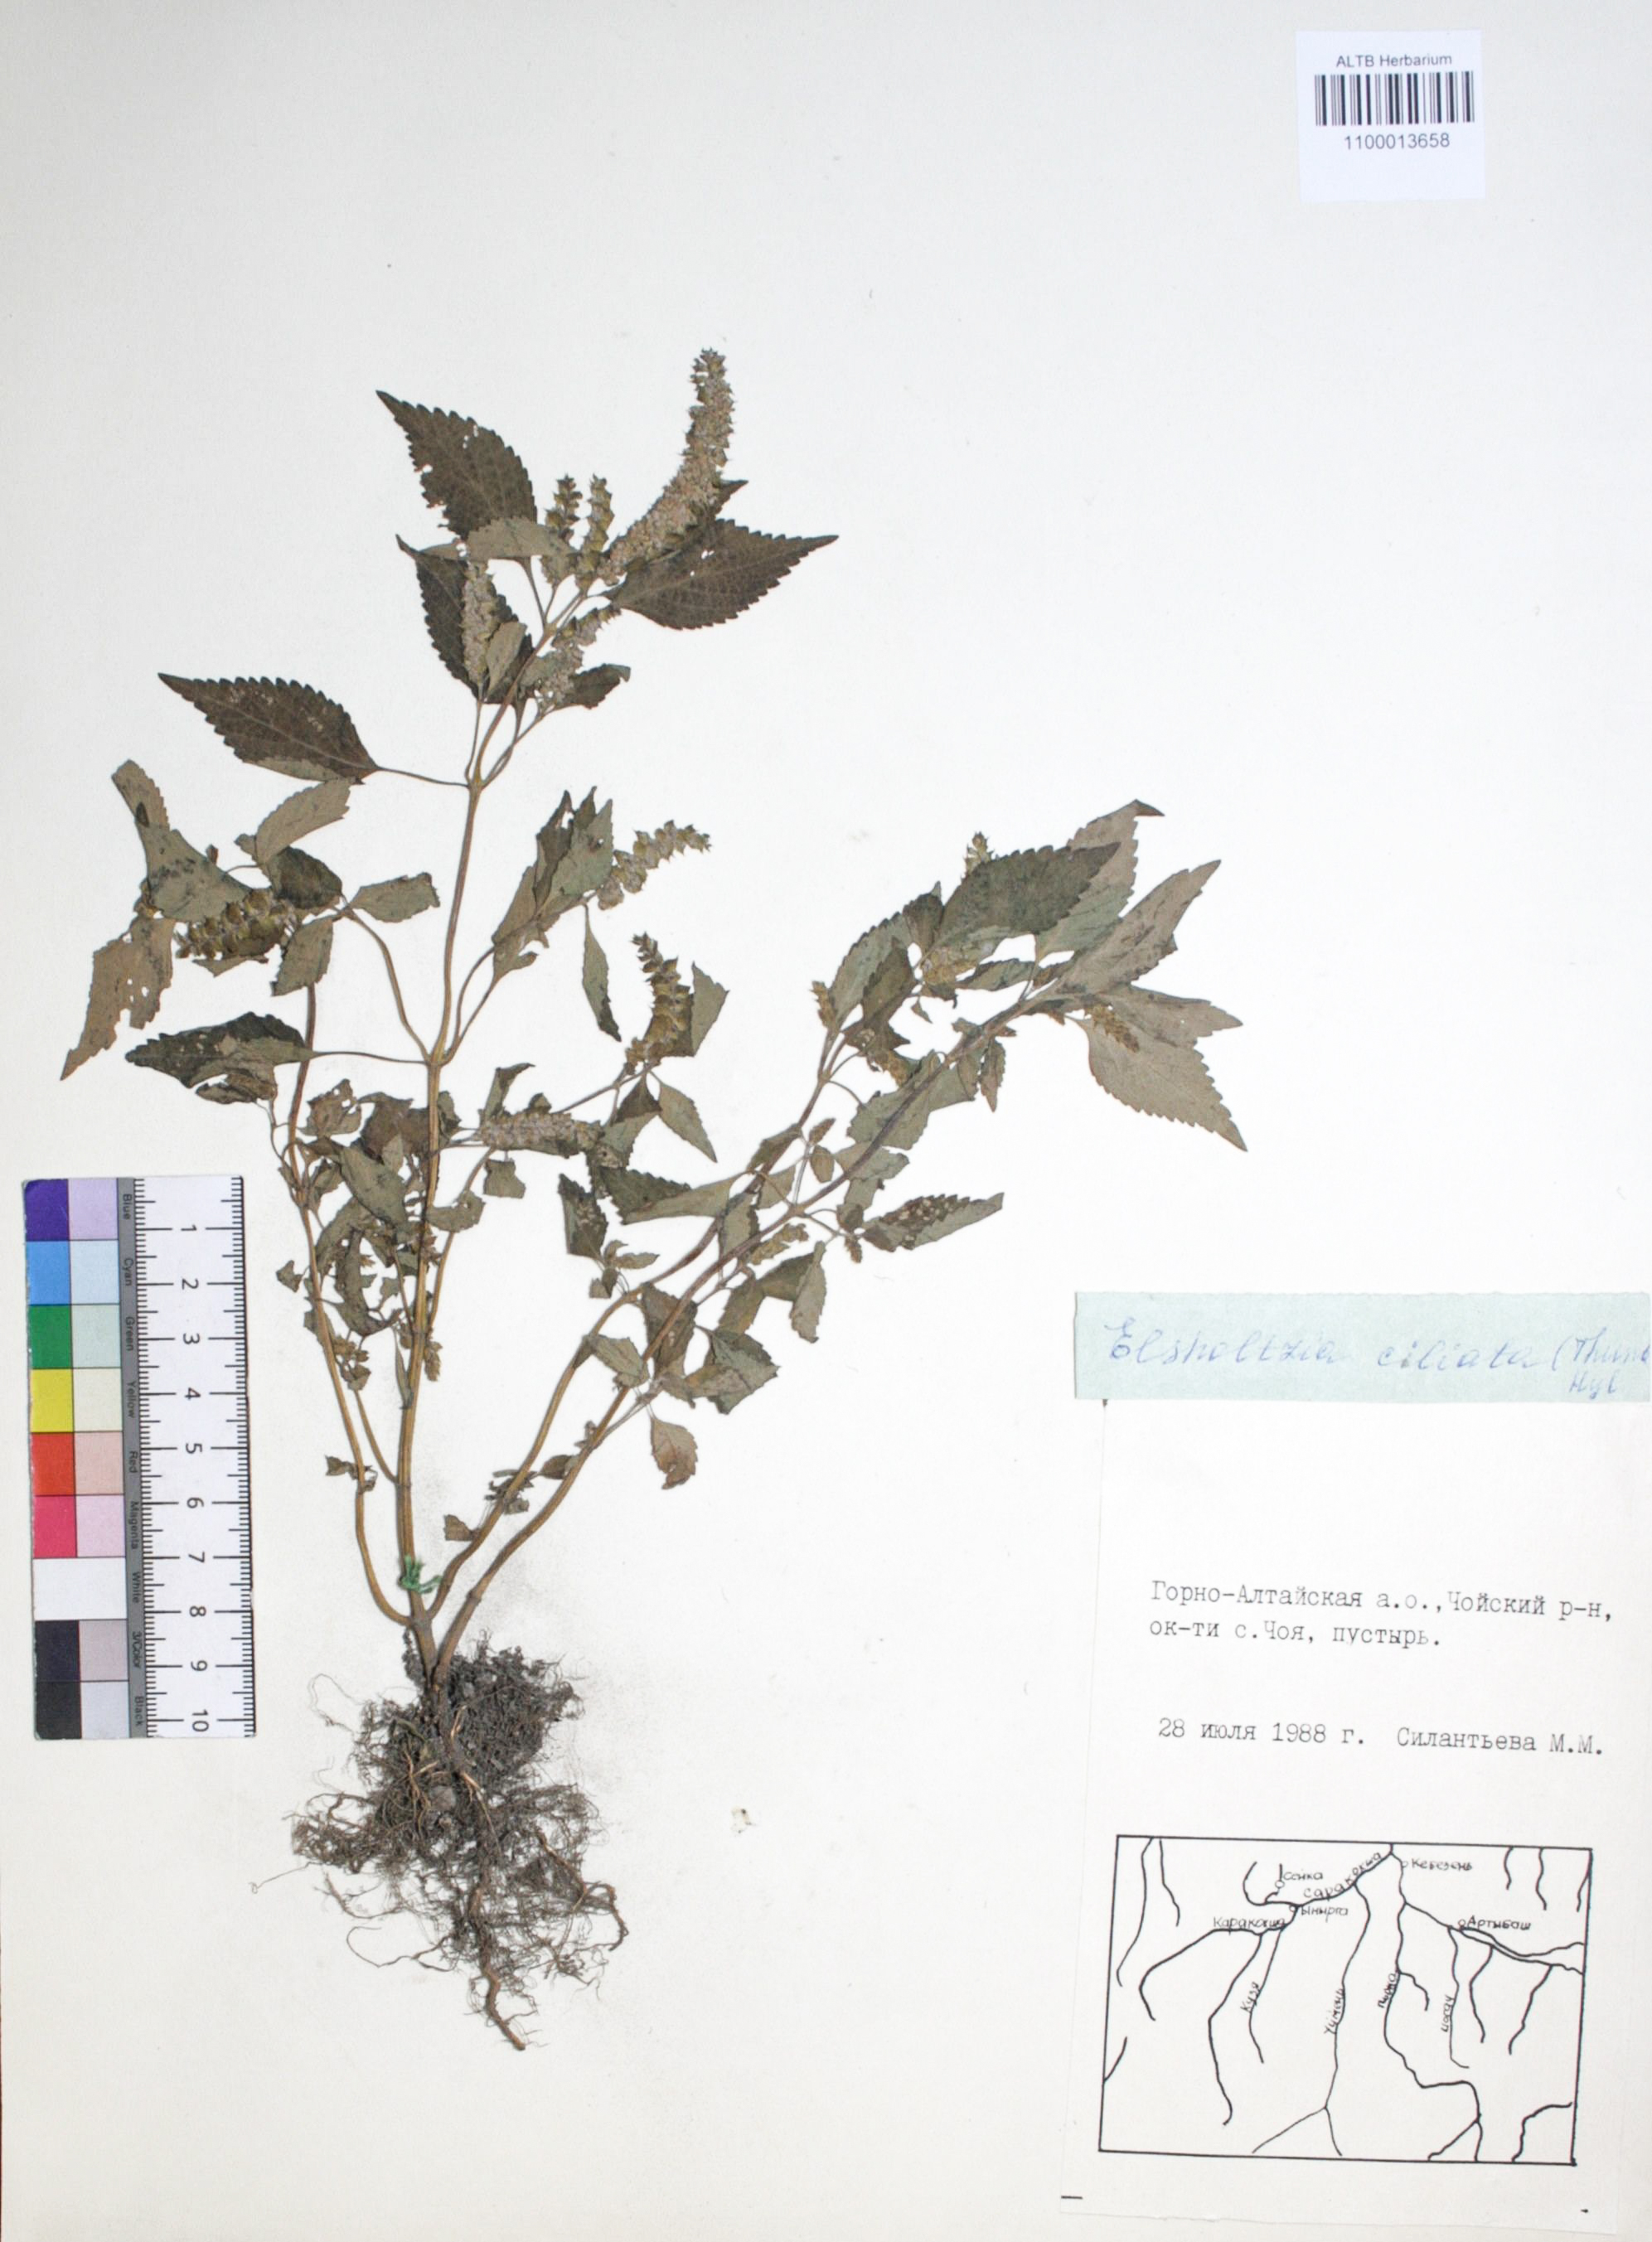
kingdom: Plantae
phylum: Tracheophyta
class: Magnoliopsida
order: Lamiales
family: Lamiaceae
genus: Elsholtzia
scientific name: Elsholtzia ciliata
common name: Ciliate elsholtzia
